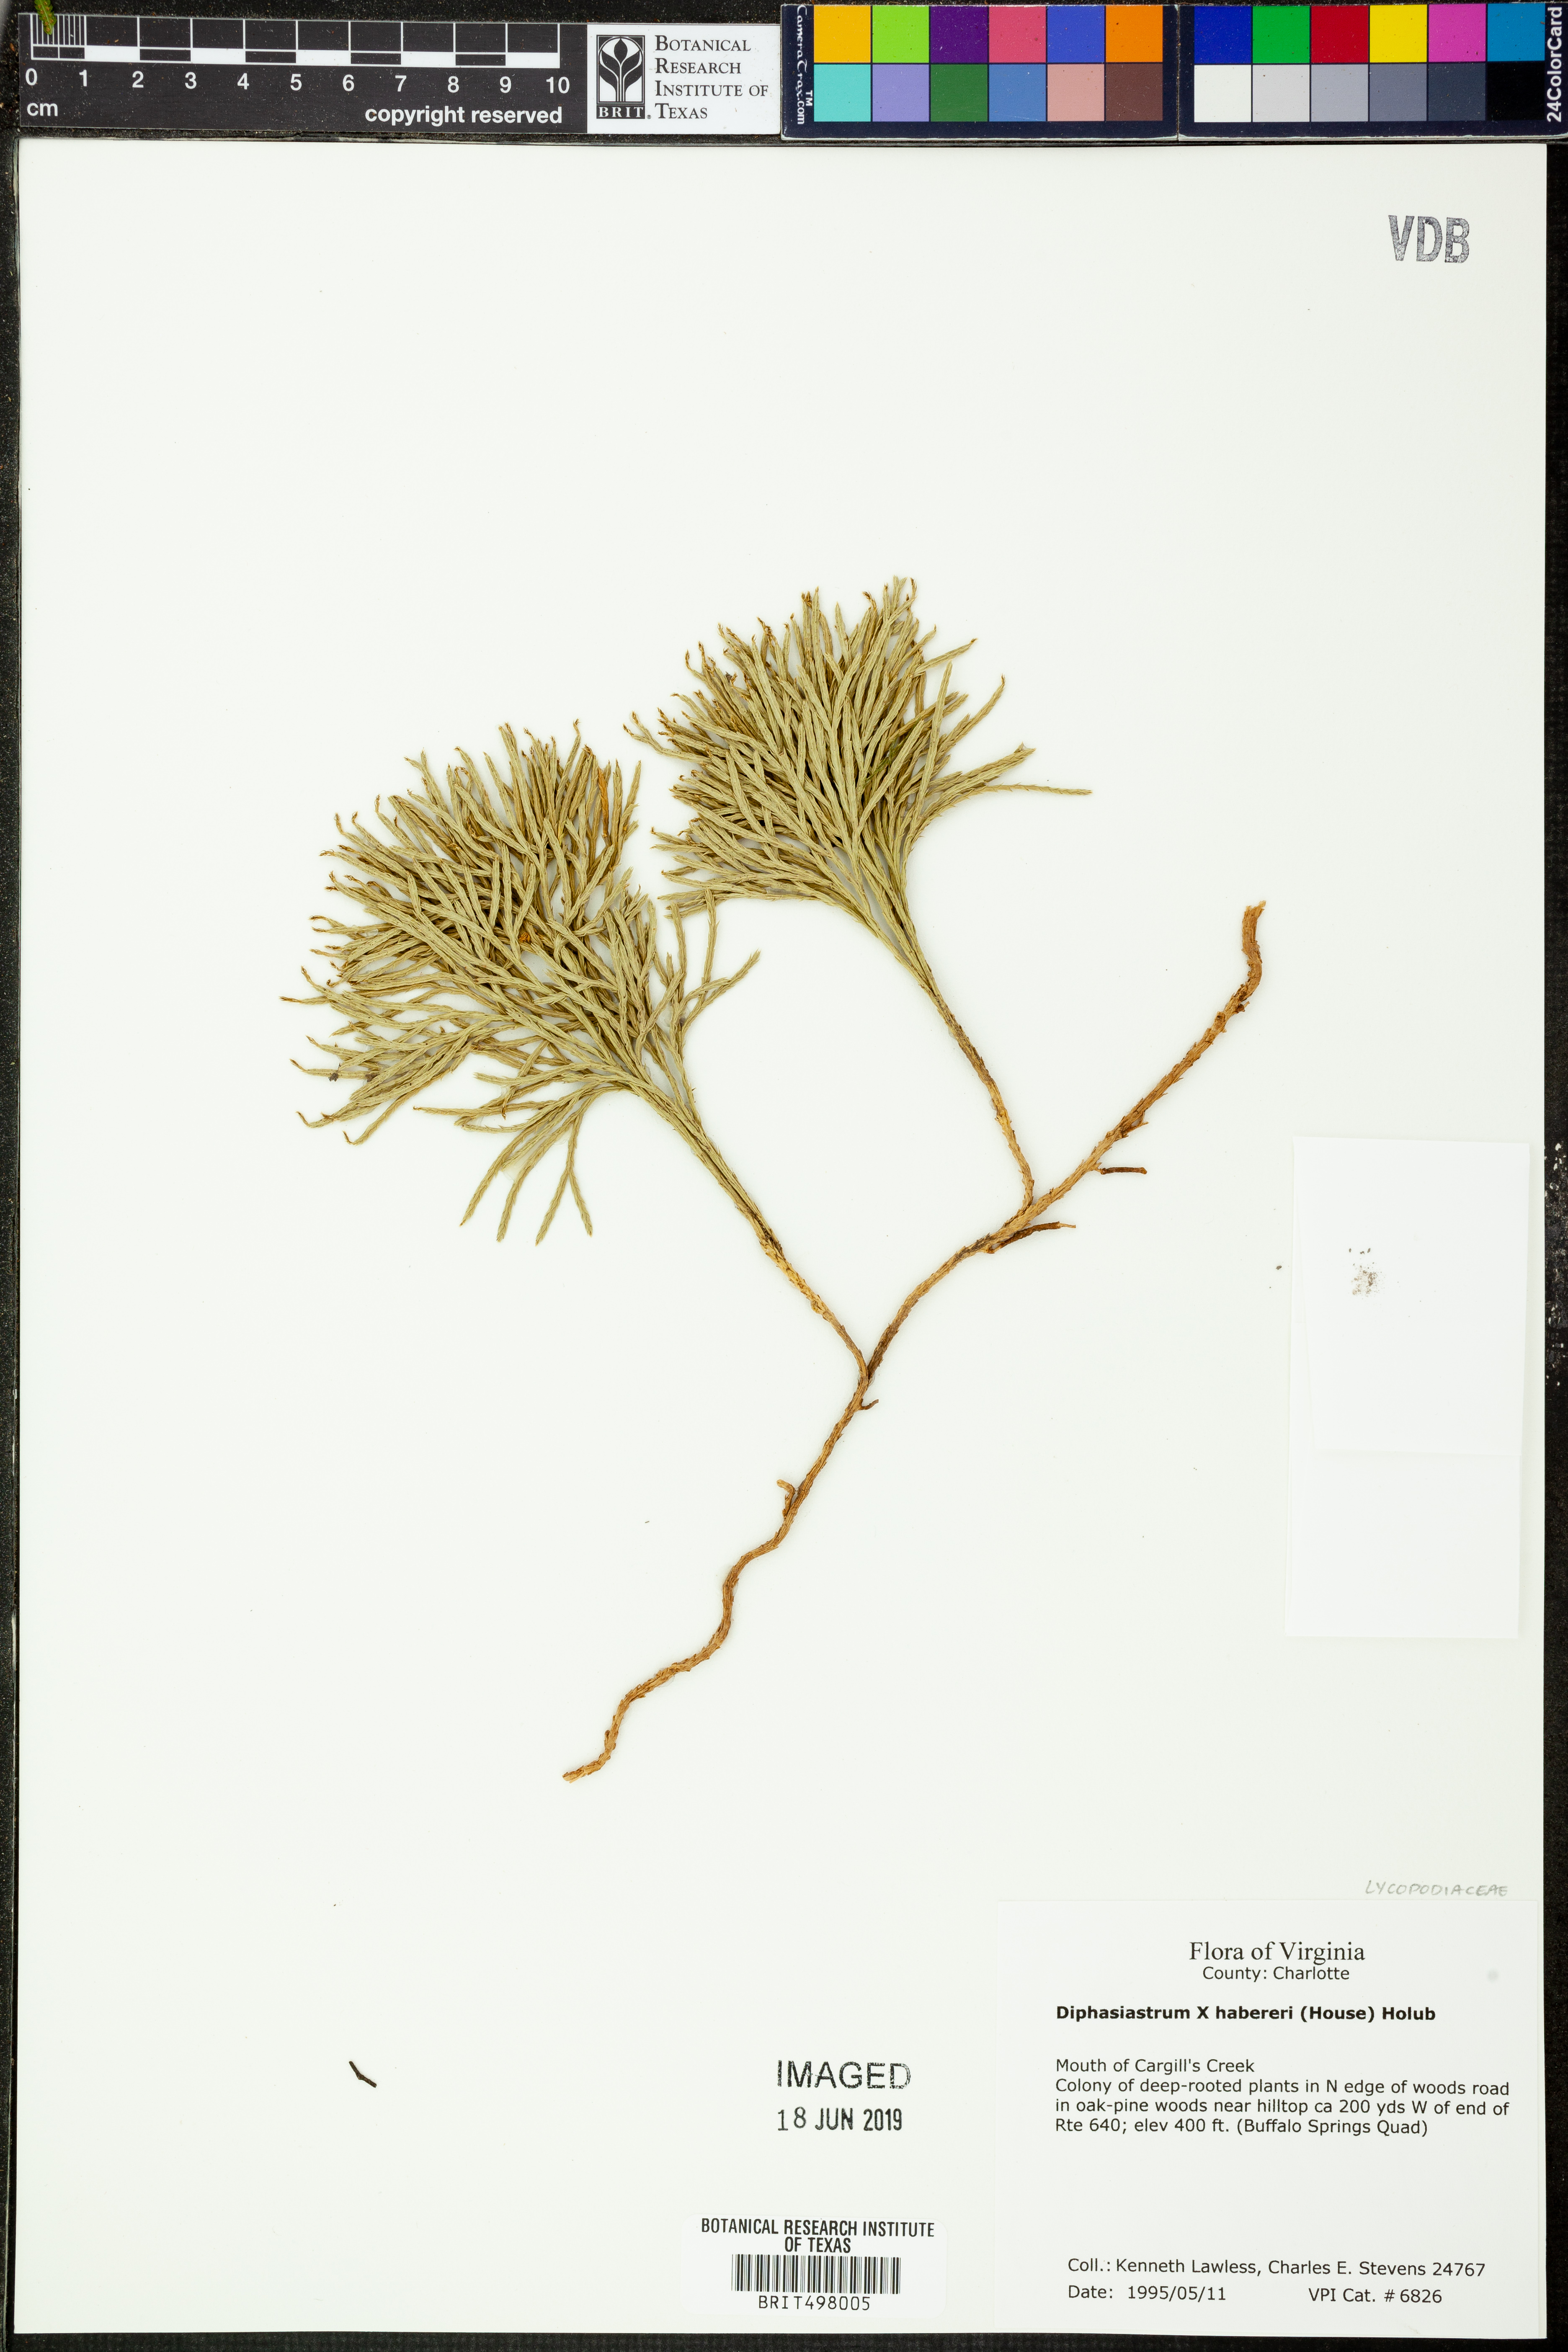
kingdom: Plantae
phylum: Tracheophyta
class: Lycopodiopsida
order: Lycopodiales
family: Lycopodiaceae
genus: Diphasiastrum
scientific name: Diphasiastrum habereri
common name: Haberer's clubmoss
